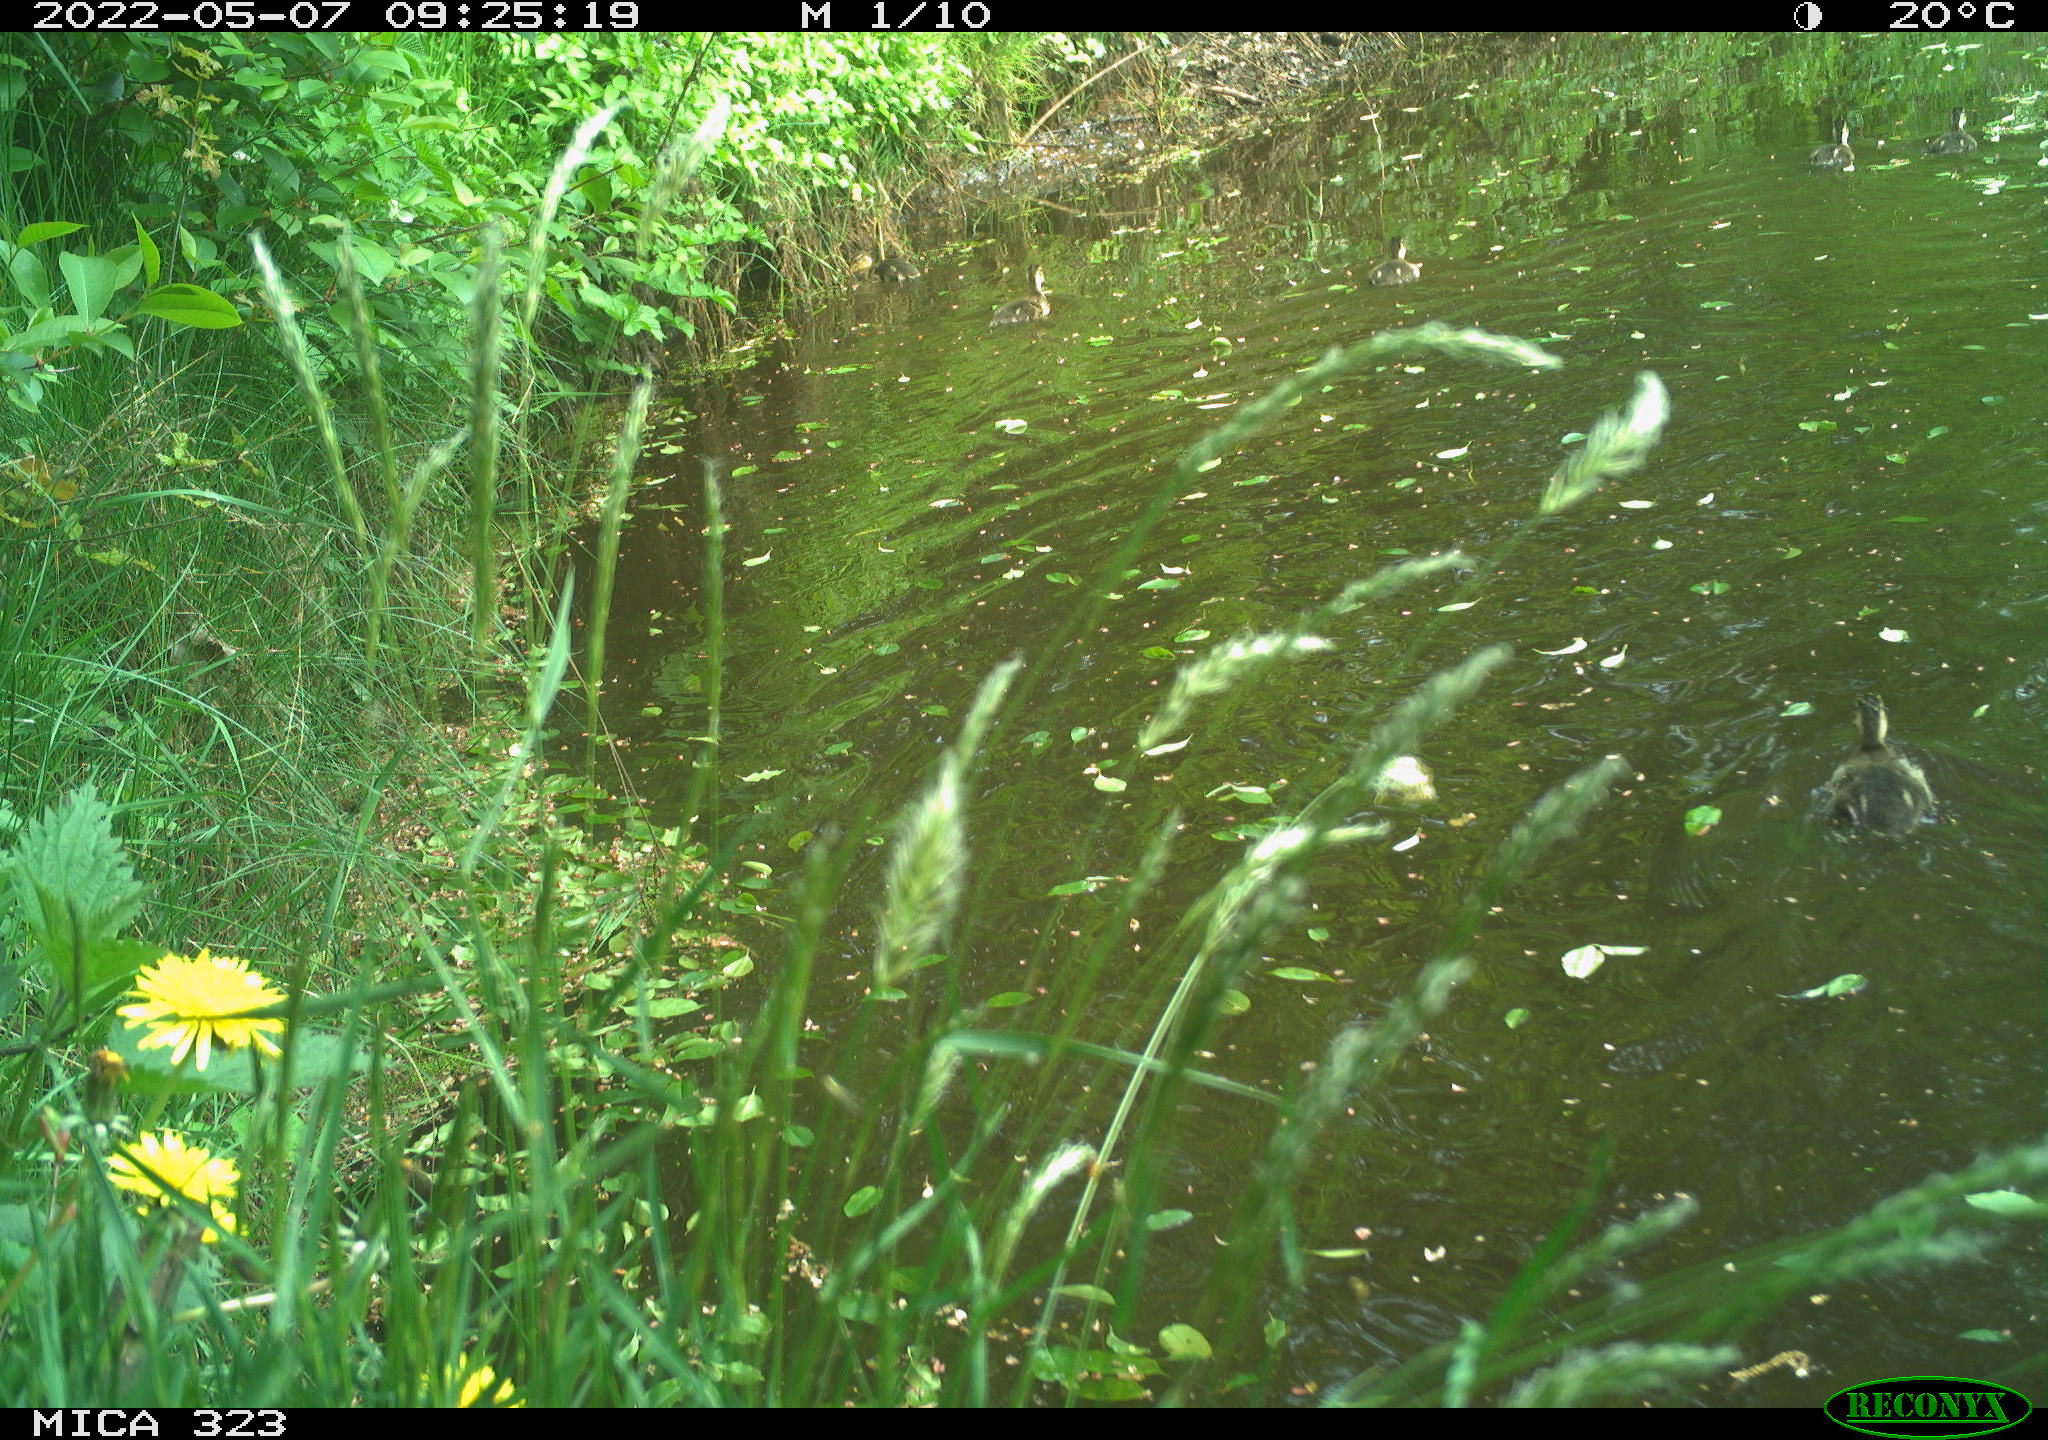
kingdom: Animalia
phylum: Chordata
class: Aves
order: Anseriformes
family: Anatidae
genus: Anas
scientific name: Anas platyrhynchos
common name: Mallard
